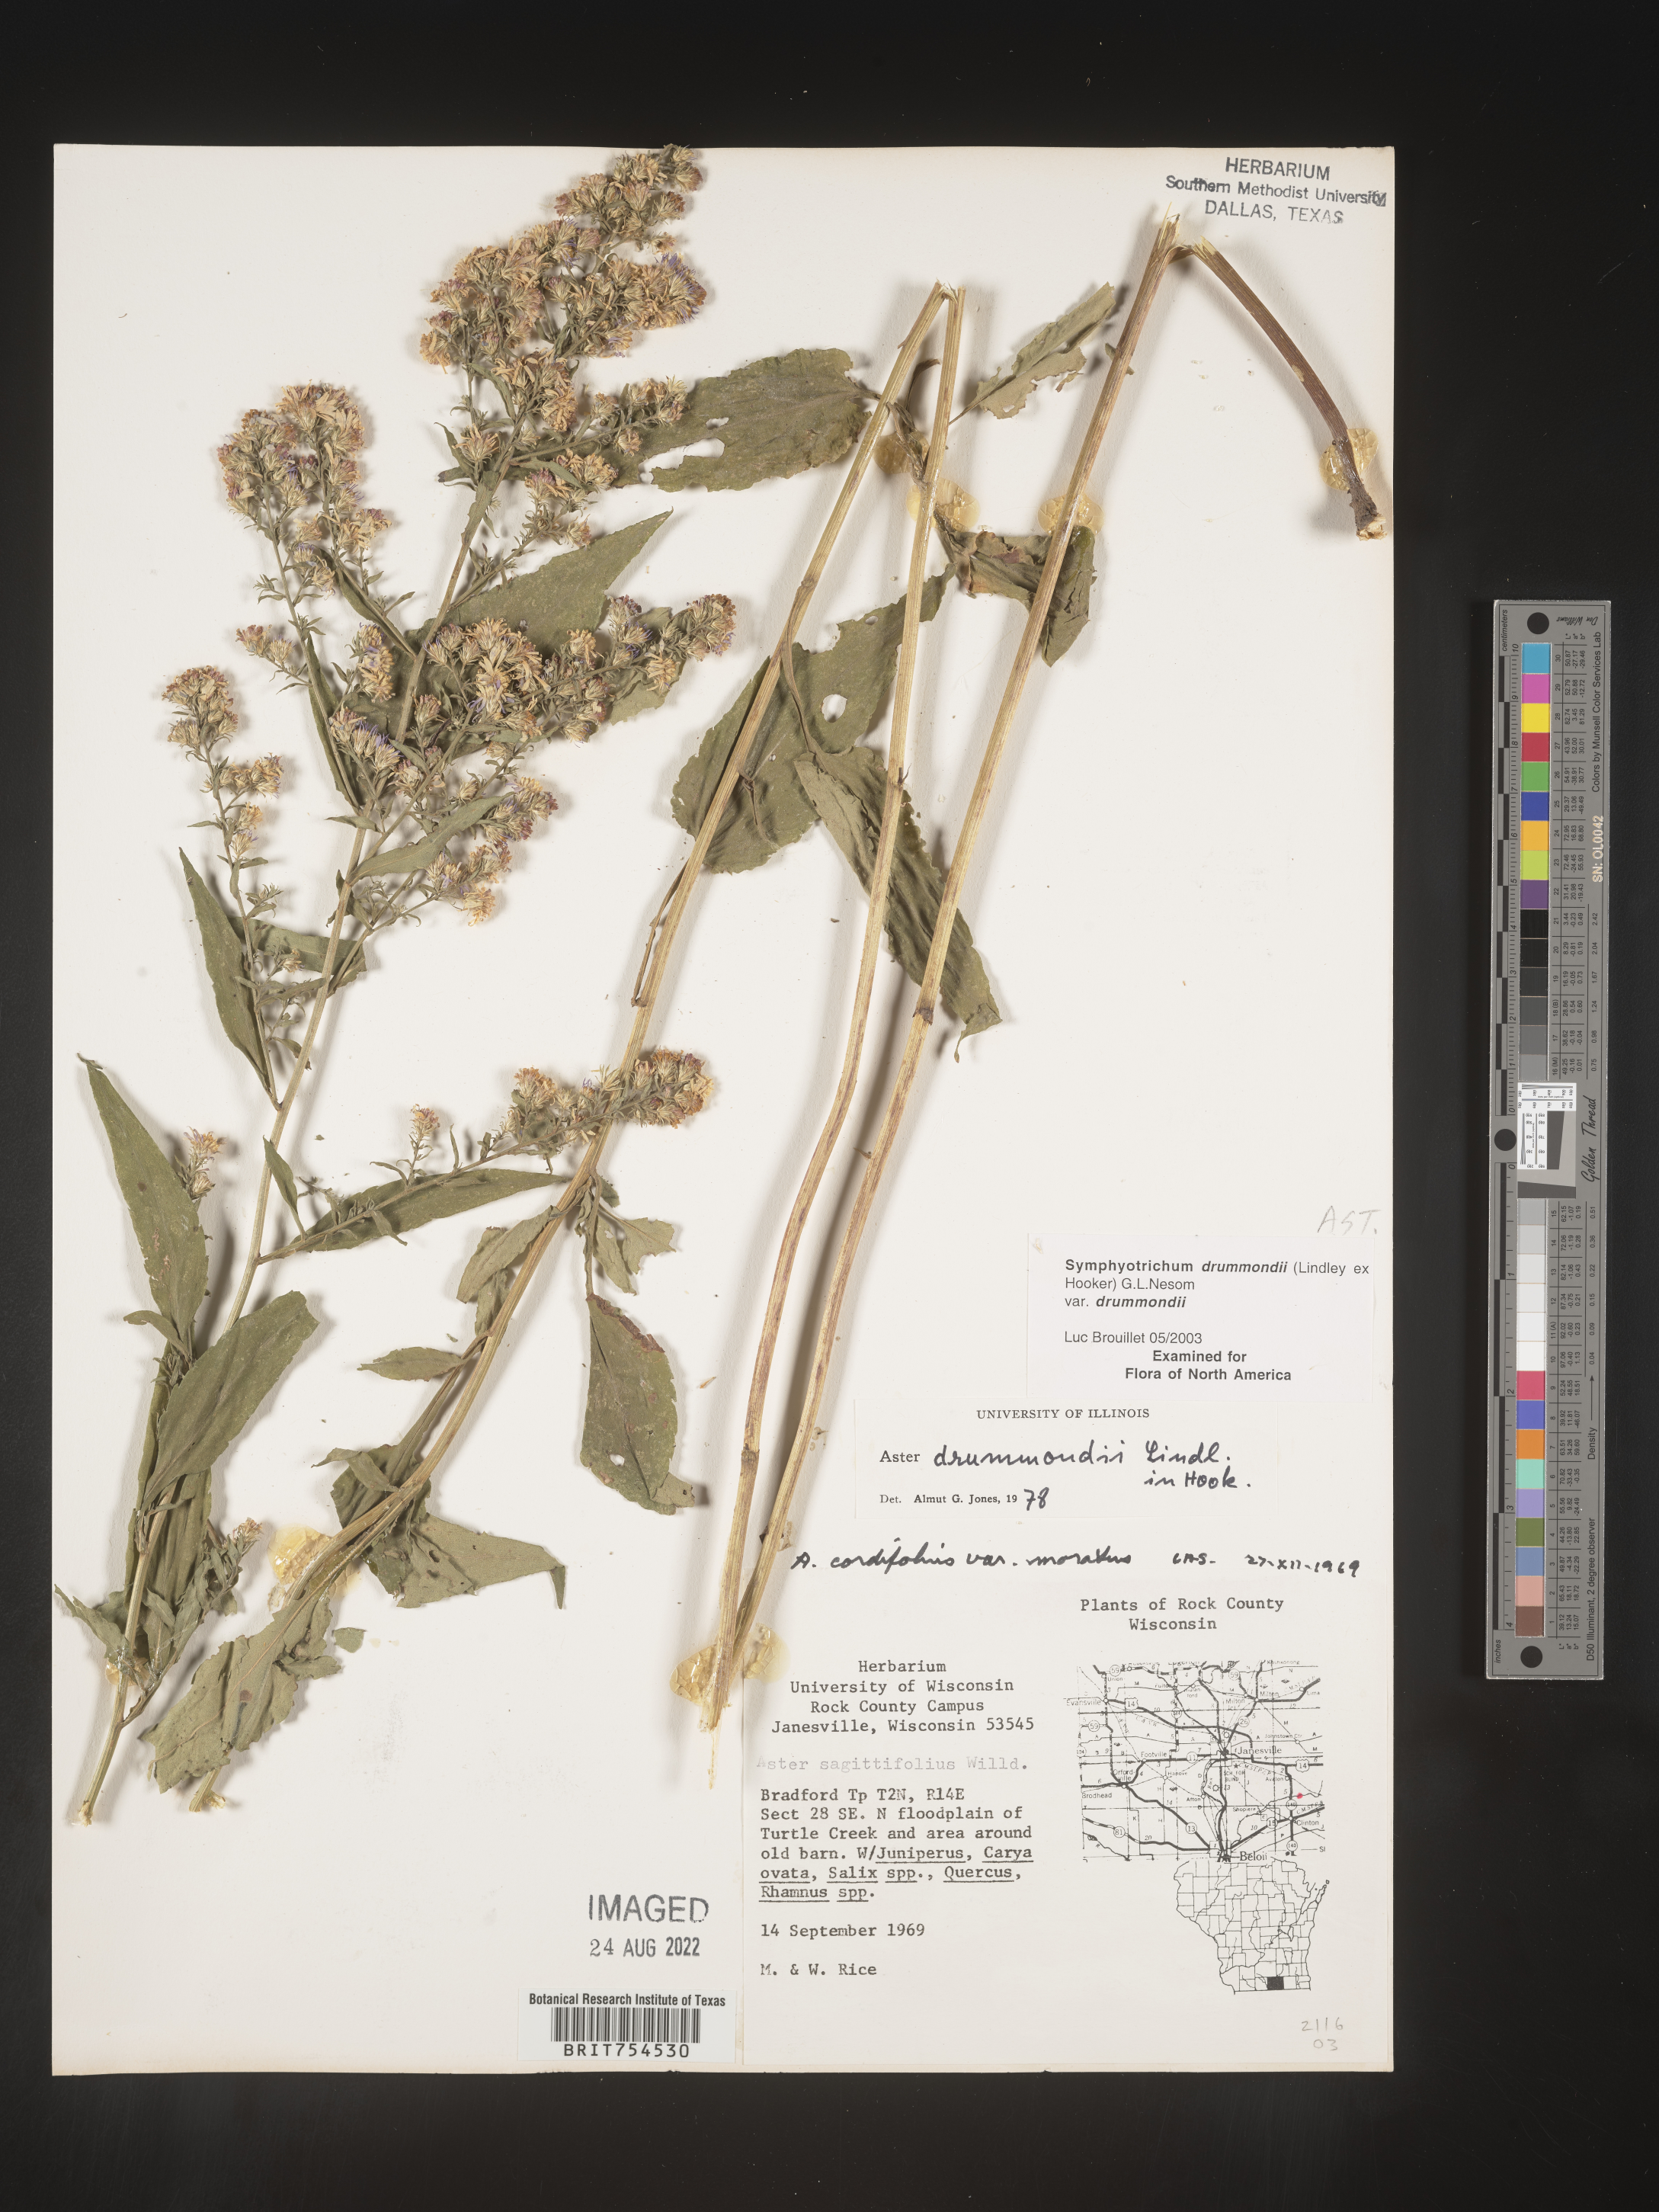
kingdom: Plantae
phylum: Tracheophyta
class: Magnoliopsida
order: Asterales
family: Asteraceae
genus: Symphyotrichum
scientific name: Symphyotrichum drummondii
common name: Drummond's aster
